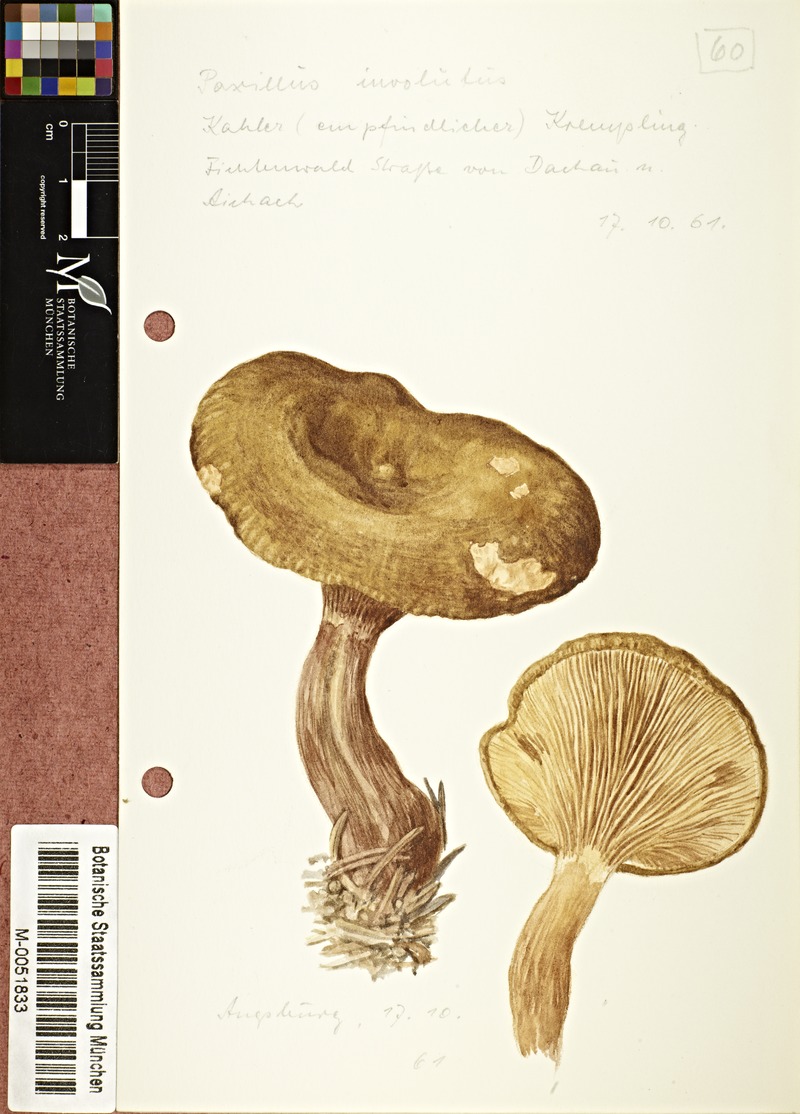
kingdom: Fungi
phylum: Basidiomycota
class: Agaricomycetes
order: Boletales
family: Paxillaceae
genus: Paxillus
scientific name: Paxillus involutus
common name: Brown roll rim
